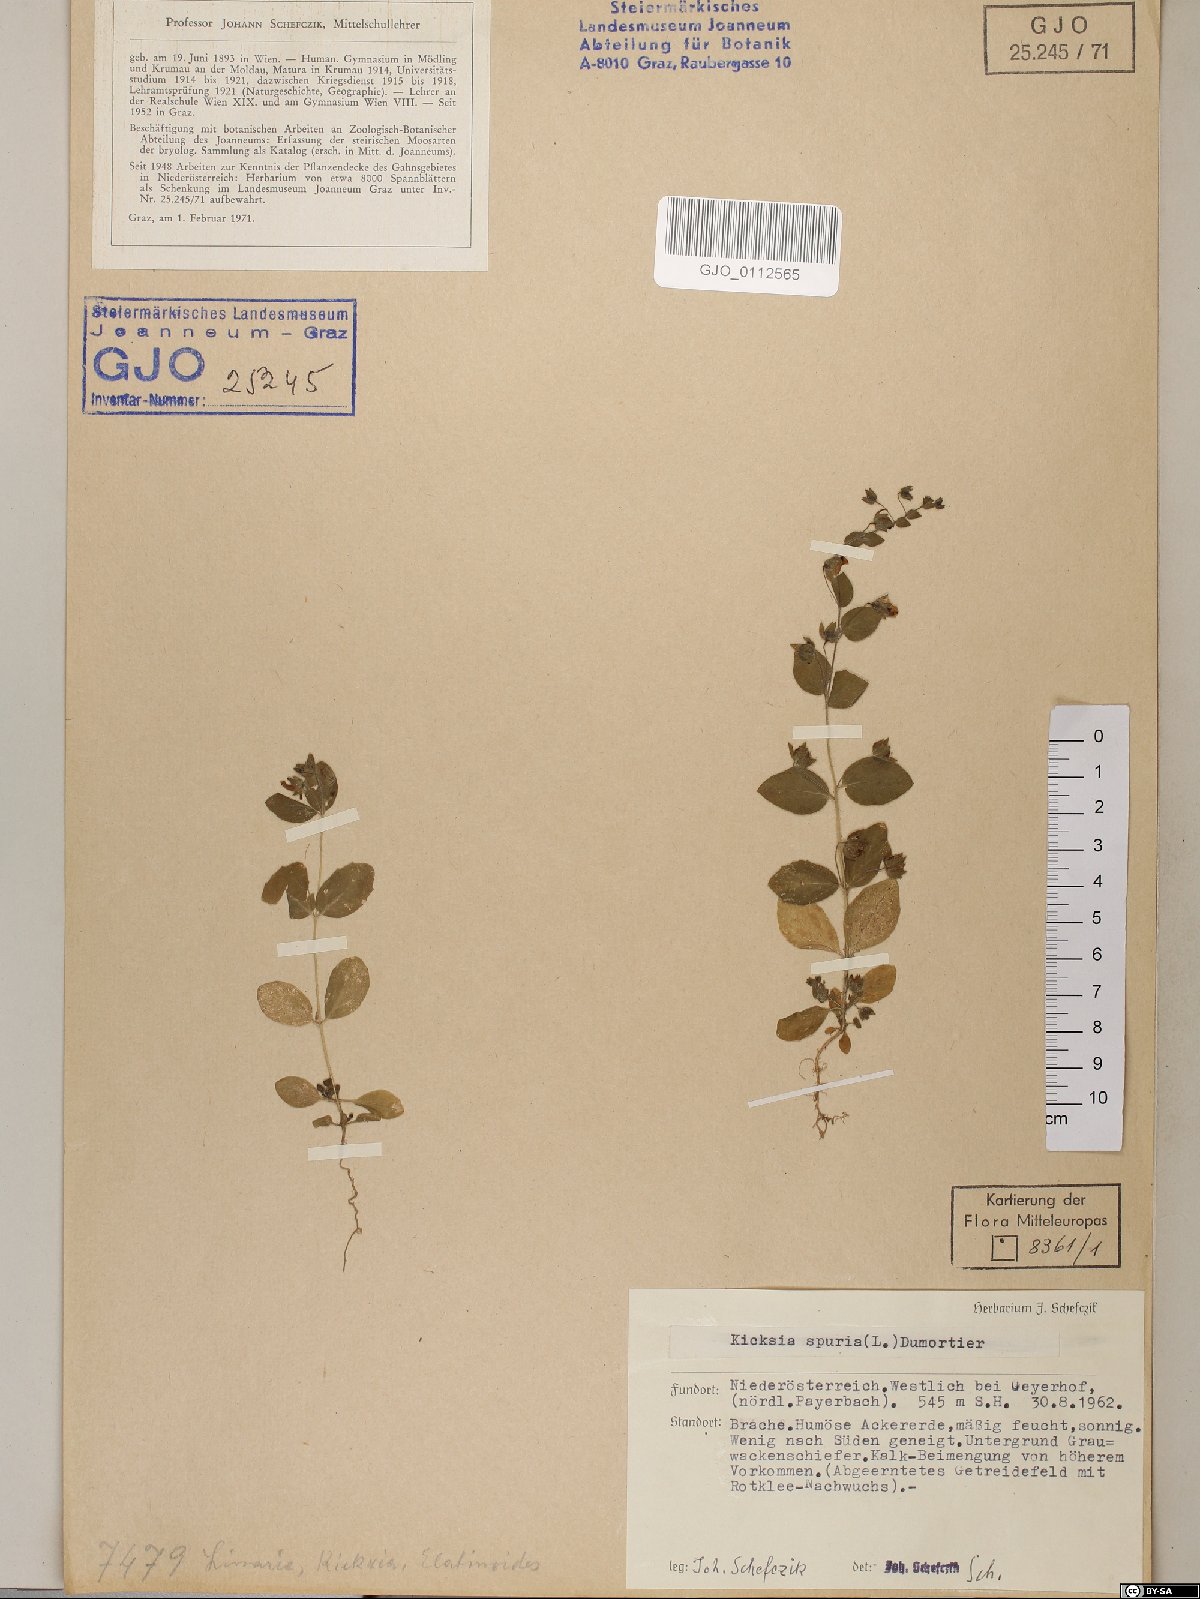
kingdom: Plantae
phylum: Tracheophyta
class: Magnoliopsida
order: Lamiales
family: Plantaginaceae
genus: Kickxia
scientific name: Kickxia spuria
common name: Round-leaved fluellen
